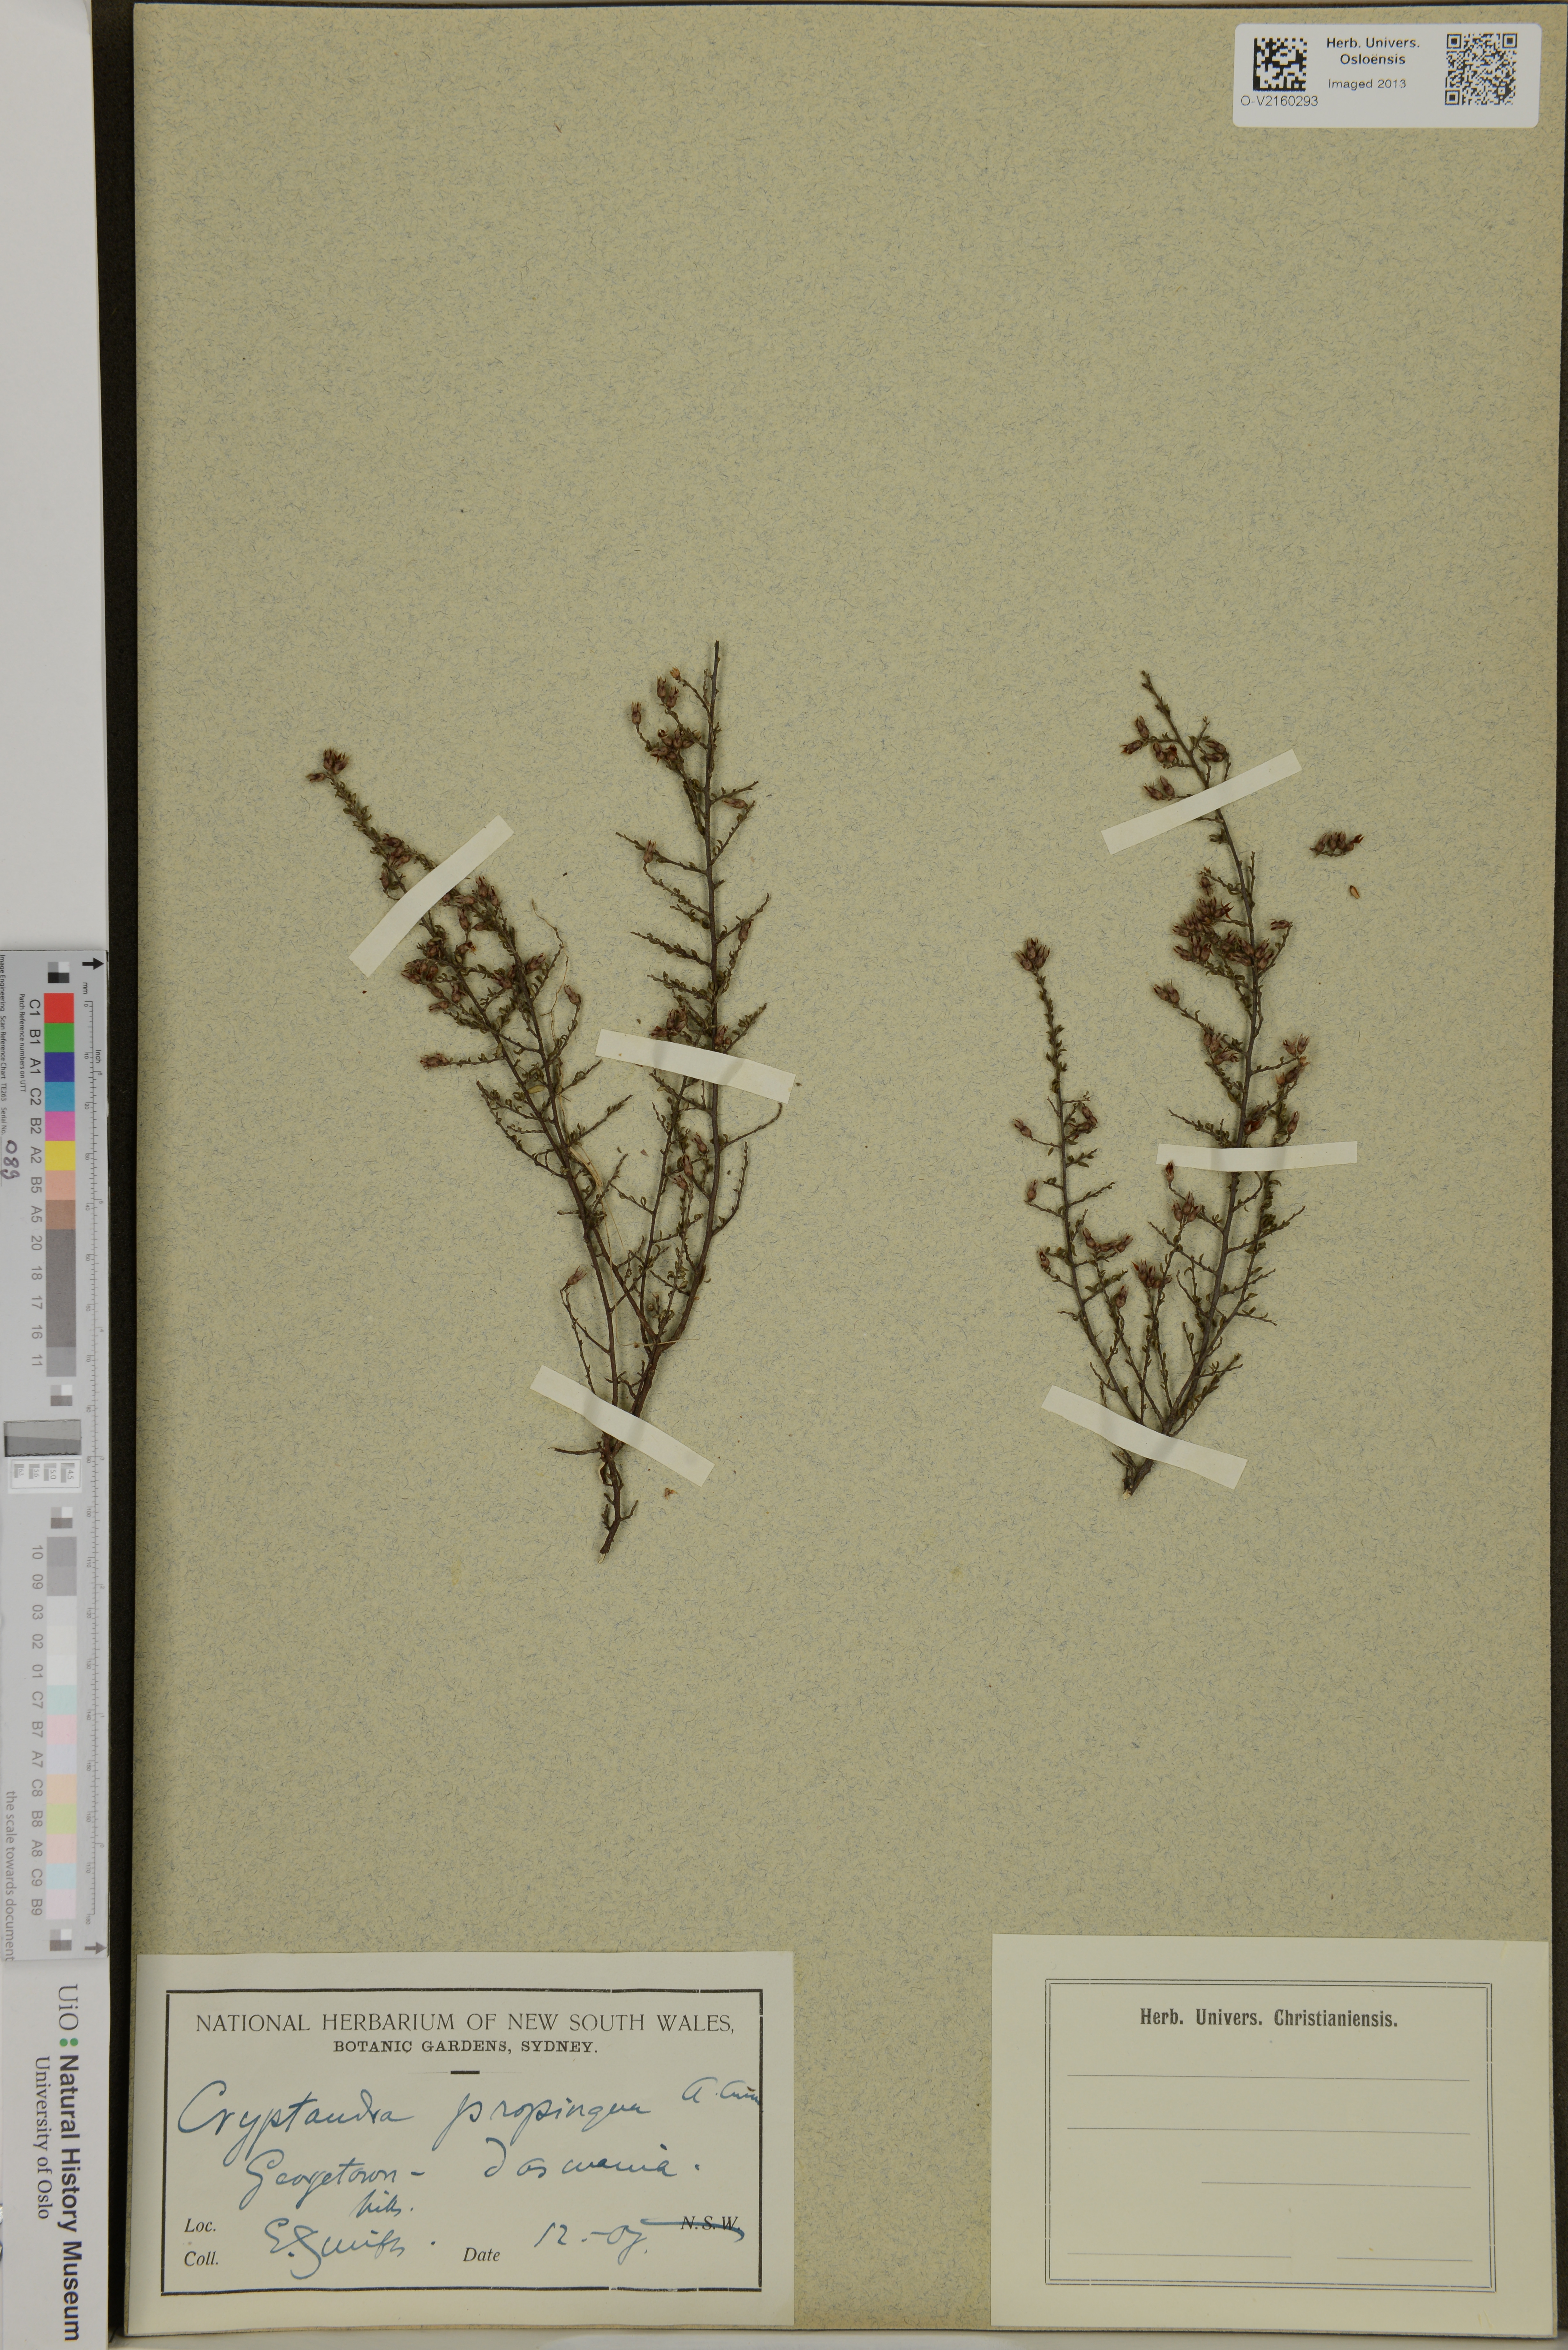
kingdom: Plantae
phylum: Tracheophyta
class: Magnoliopsida
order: Rosales
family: Rhamnaceae
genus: Cryptandra
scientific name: Cryptandra propinqua
